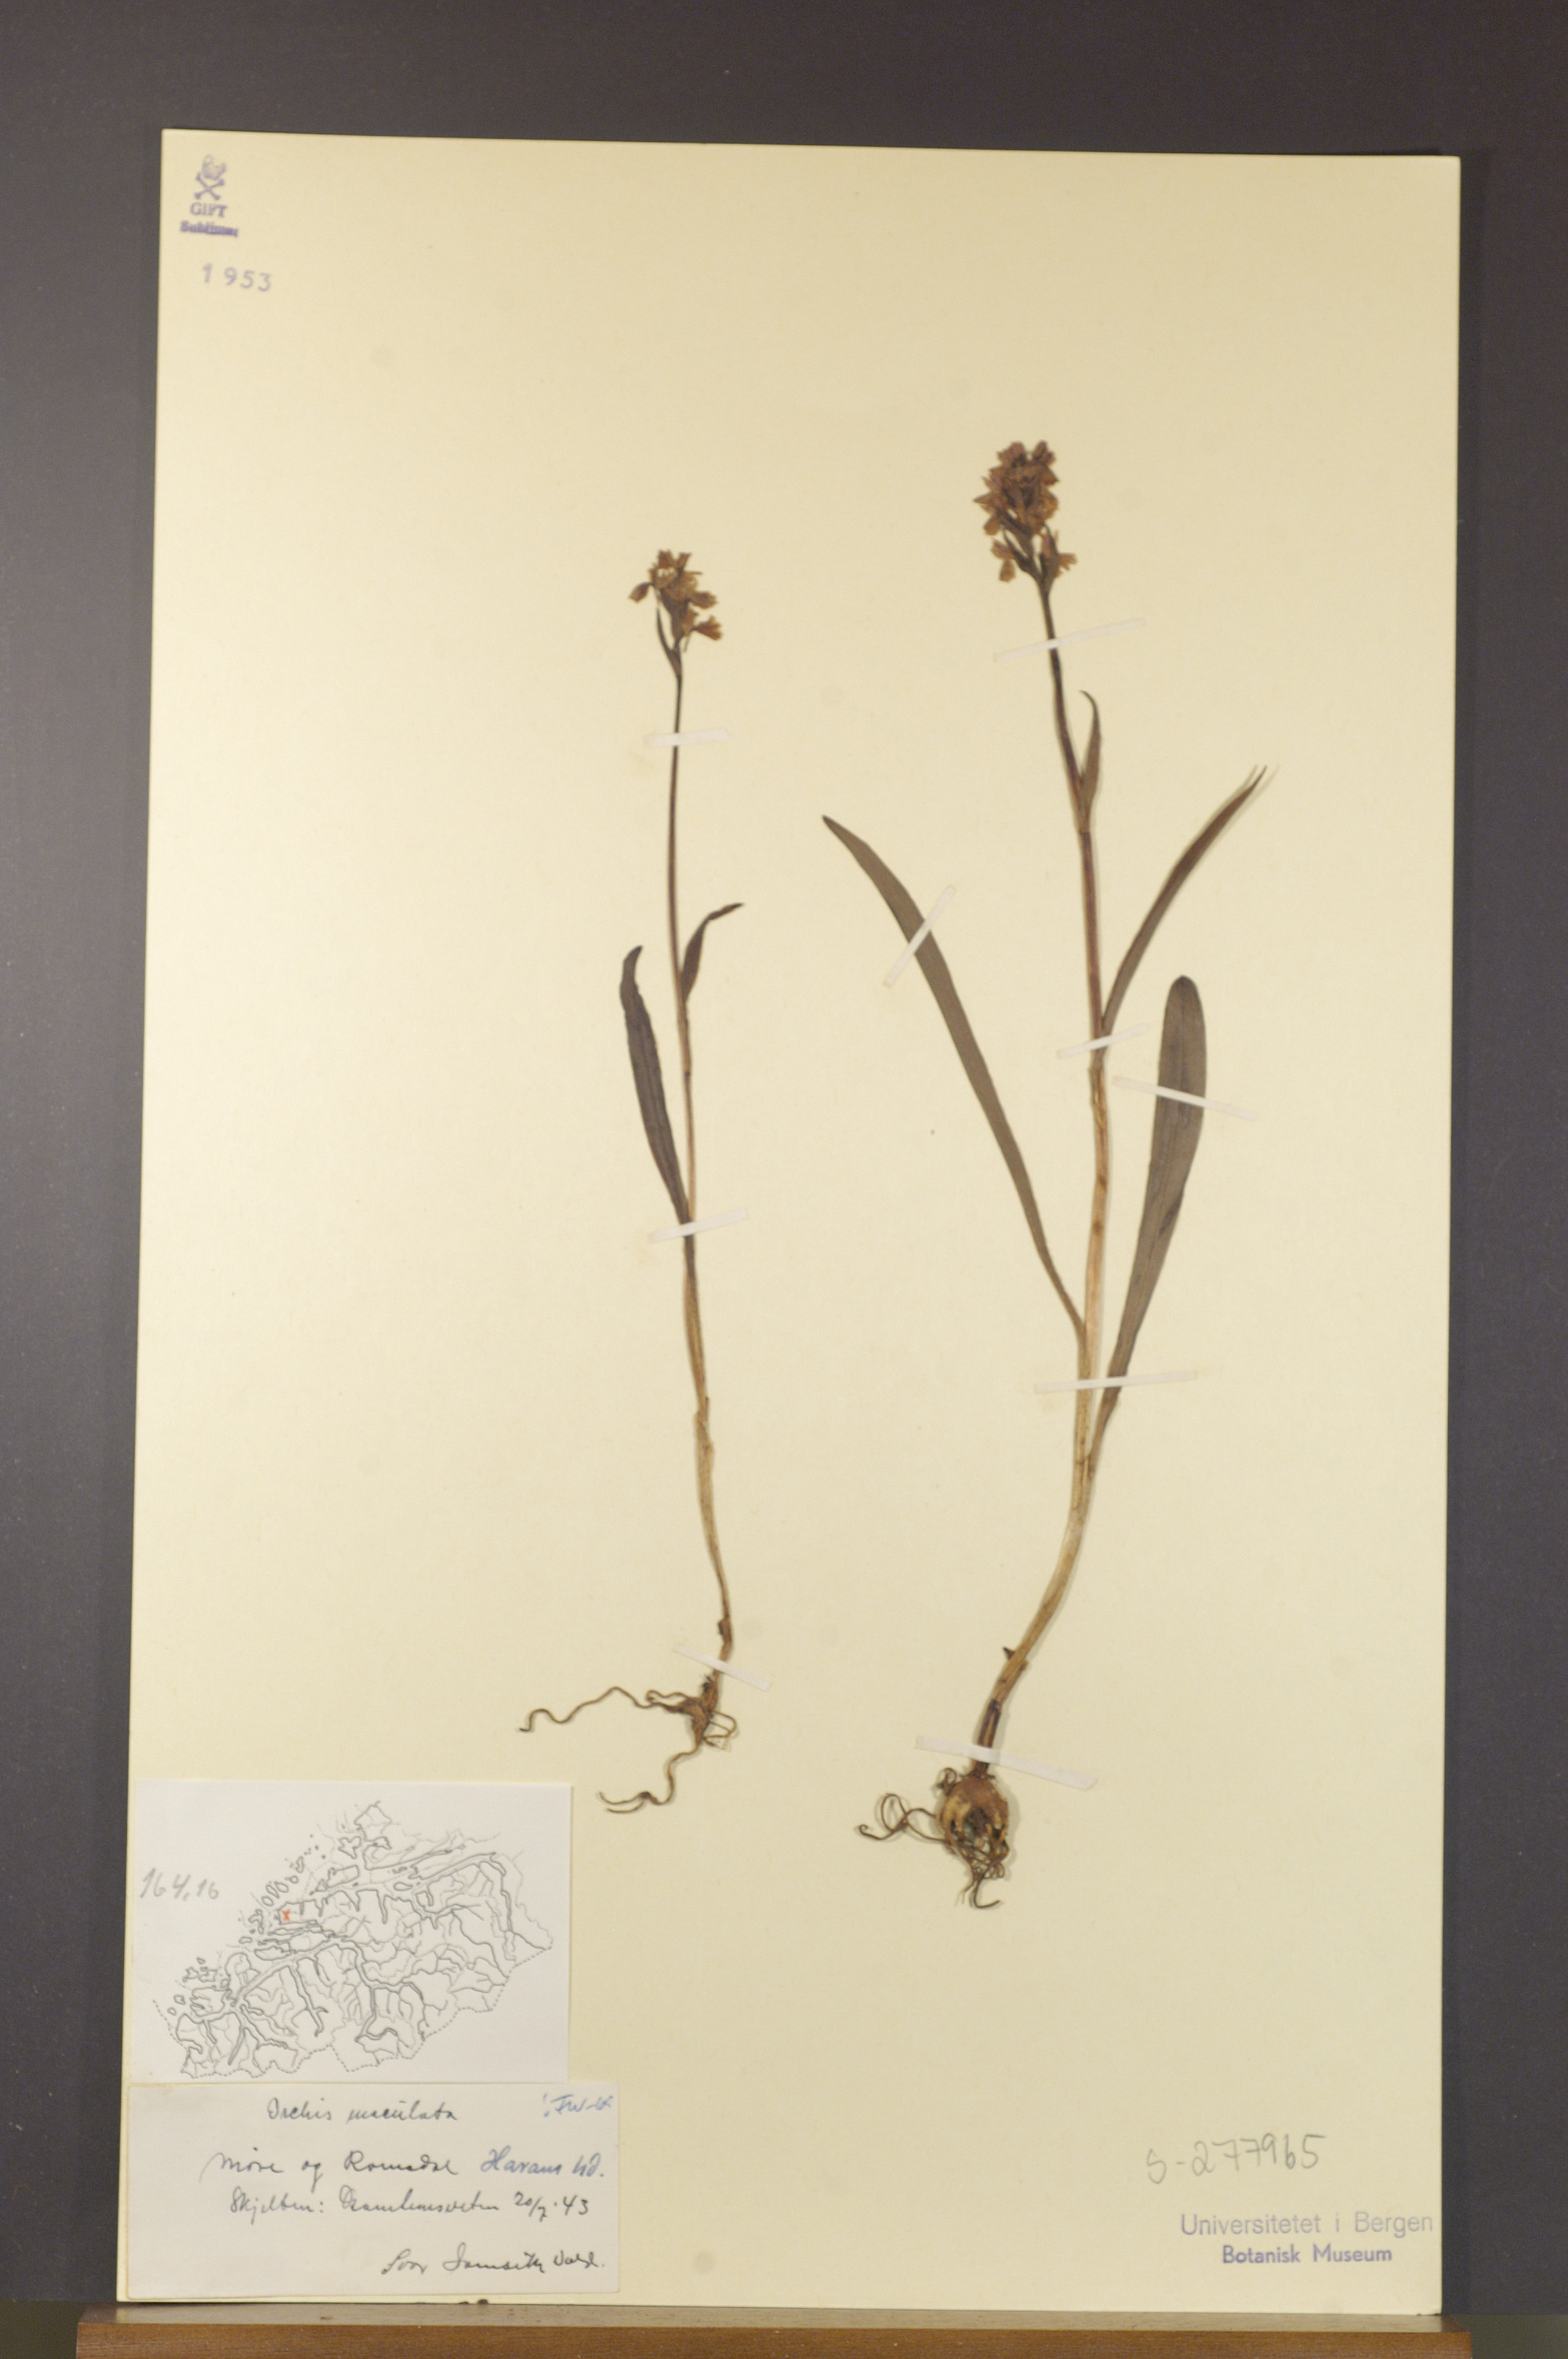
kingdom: Plantae
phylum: Tracheophyta
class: Liliopsida
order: Asparagales
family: Orchidaceae
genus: Dactylorhiza
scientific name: Dactylorhiza maculata
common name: Heath spotted-orchid
